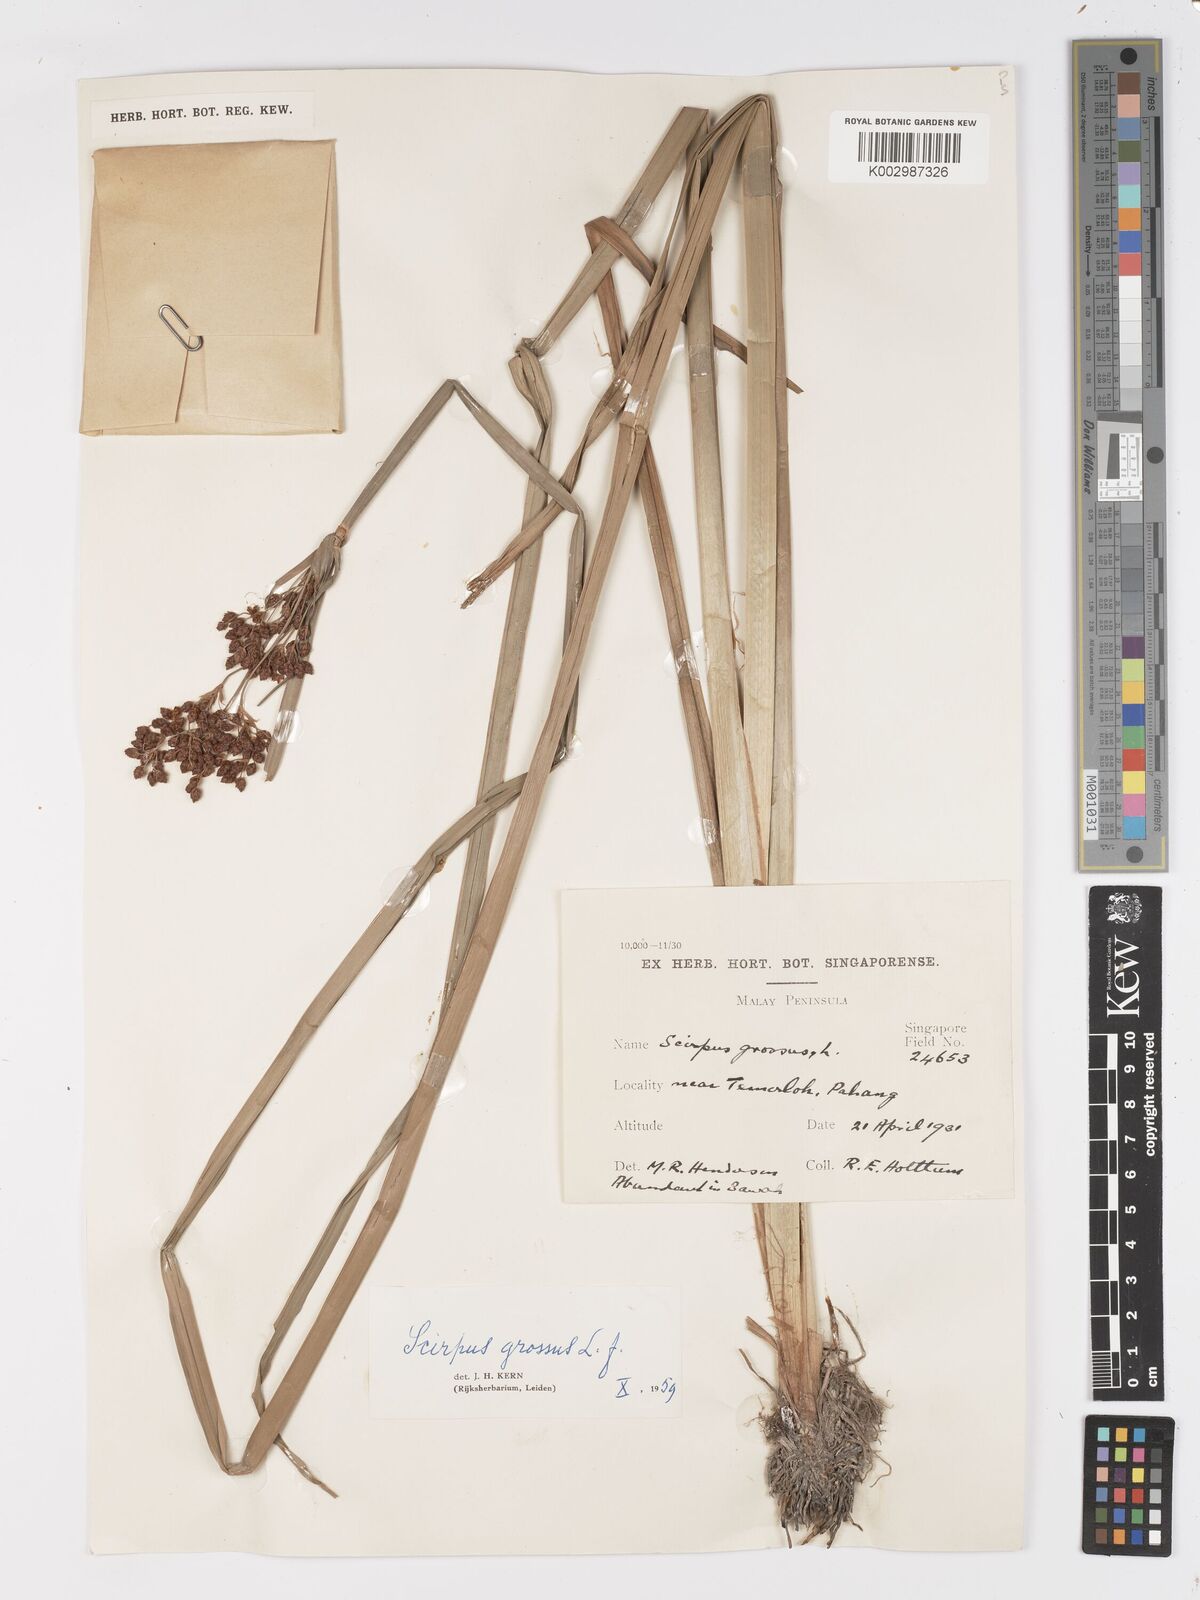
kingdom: Plantae
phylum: Tracheophyta
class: Liliopsida
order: Poales
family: Cyperaceae
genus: Actinoscirpus
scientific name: Actinoscirpus grossus
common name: Giant bur rush
